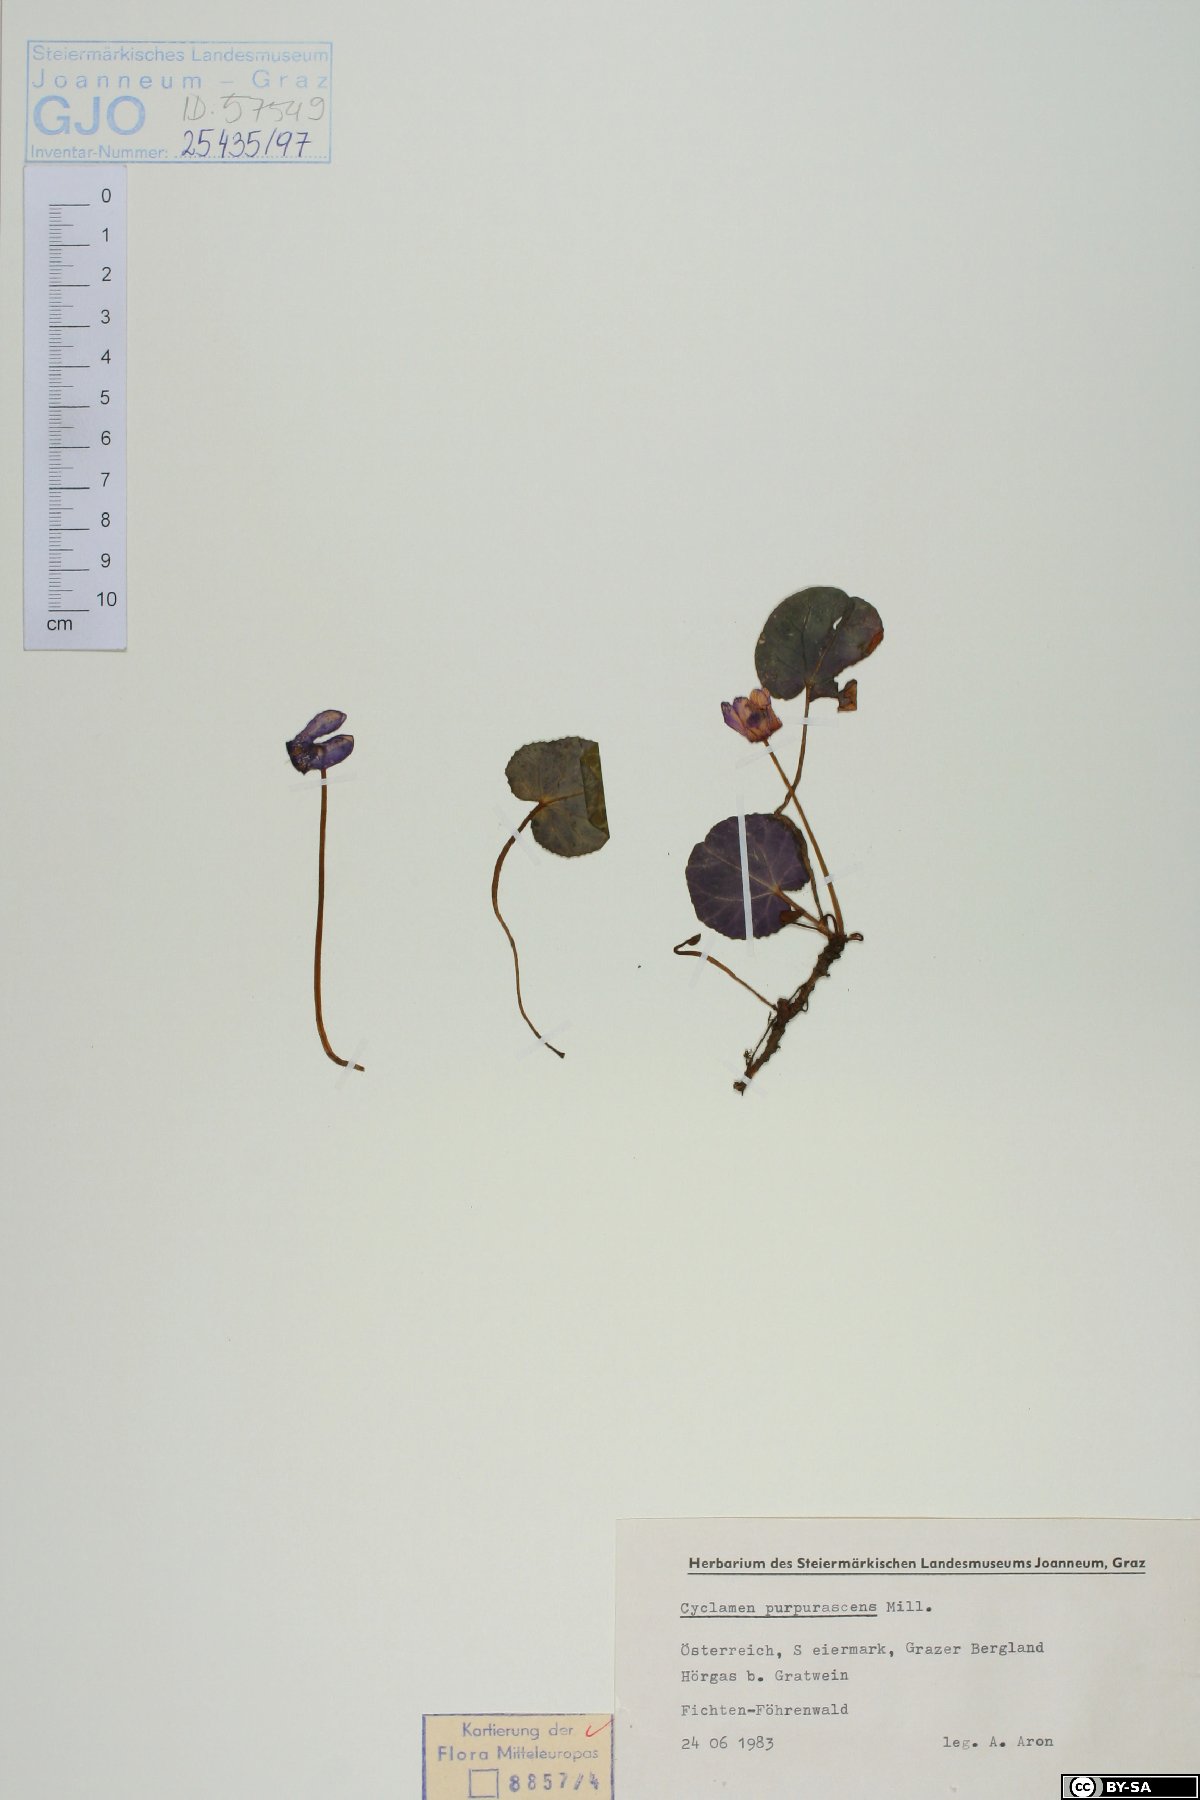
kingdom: Plantae
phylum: Tracheophyta
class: Magnoliopsida
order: Ericales
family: Primulaceae
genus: Cyclamen
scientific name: Cyclamen purpurascens
